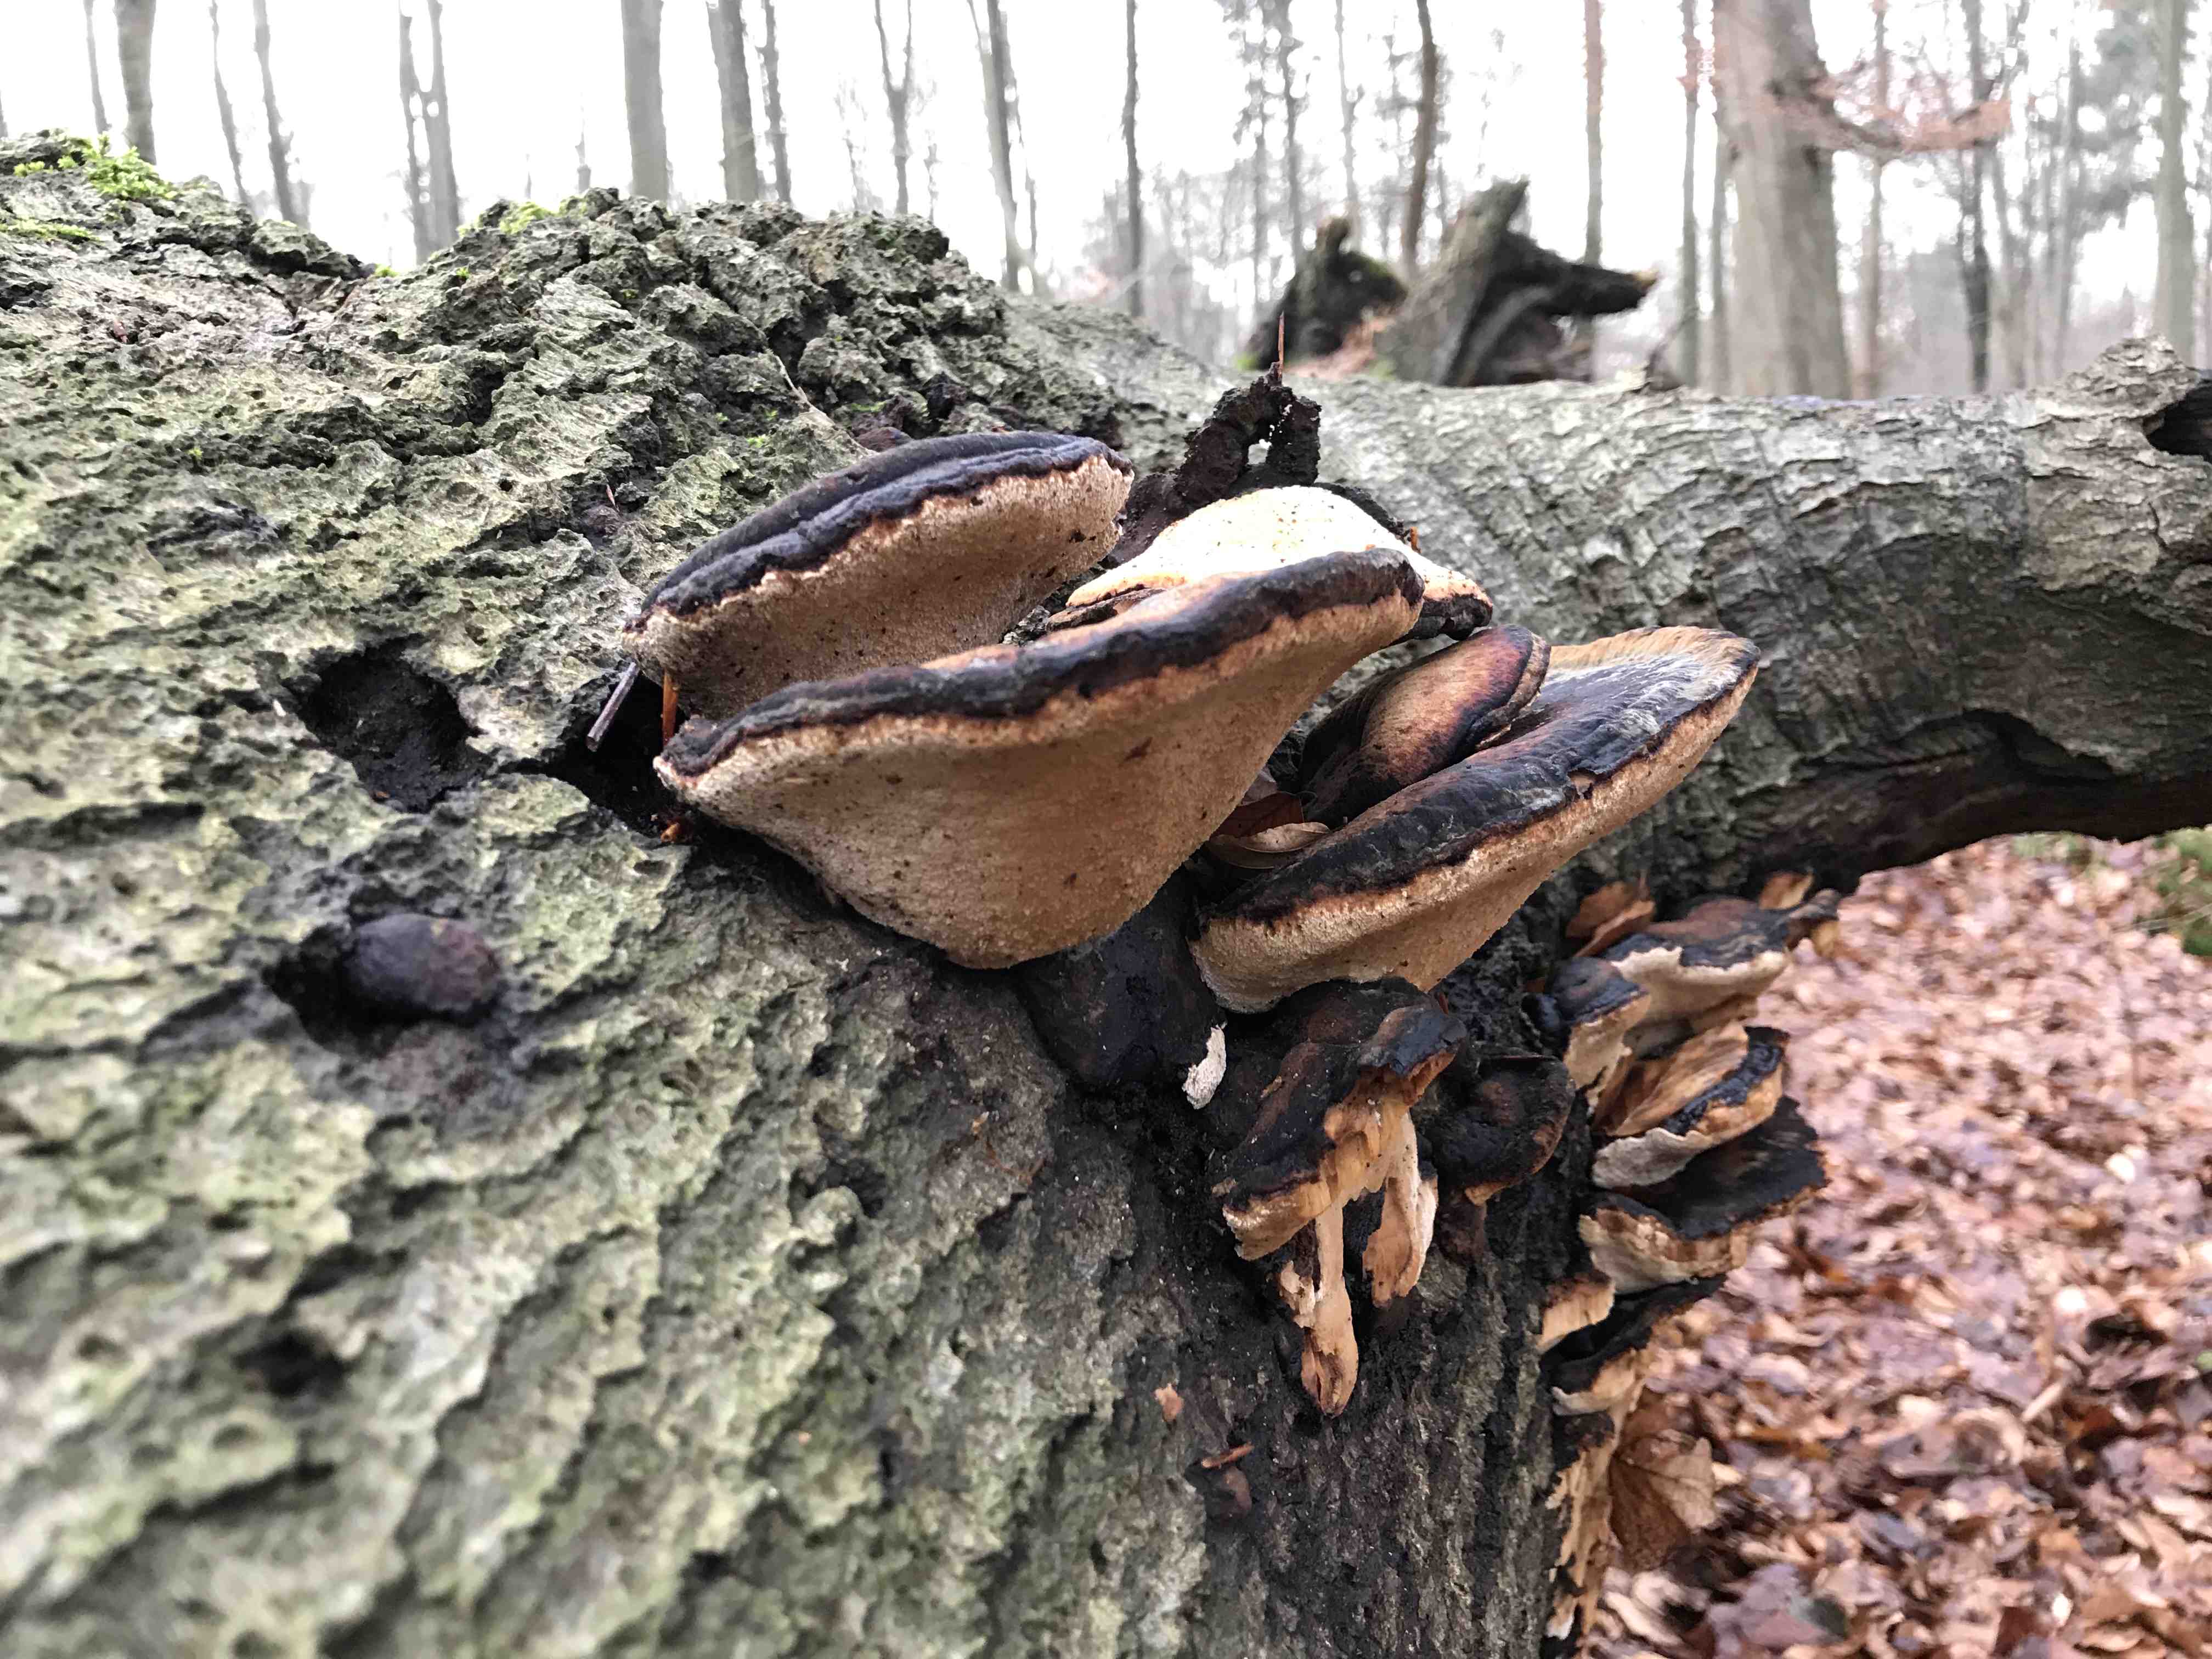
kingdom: Fungi
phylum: Basidiomycota
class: Agaricomycetes
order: Polyporales
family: Ischnodermataceae
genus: Ischnoderma
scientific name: Ischnoderma resinosum
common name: løv-tjæreporesvamp
